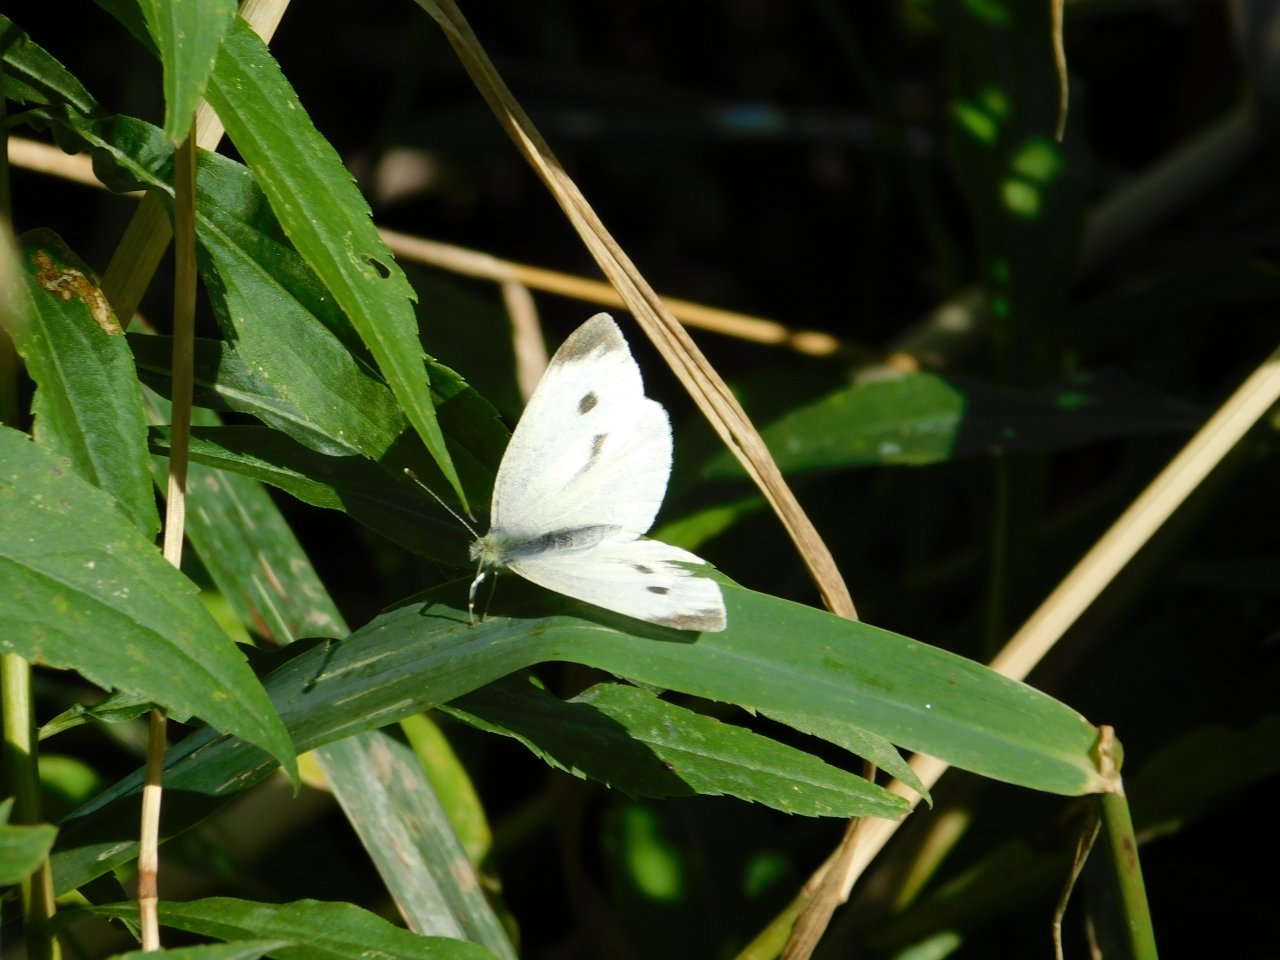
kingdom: Animalia
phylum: Arthropoda
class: Insecta
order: Lepidoptera
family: Pieridae
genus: Pieris
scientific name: Pieris rapae
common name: Cabbage White
